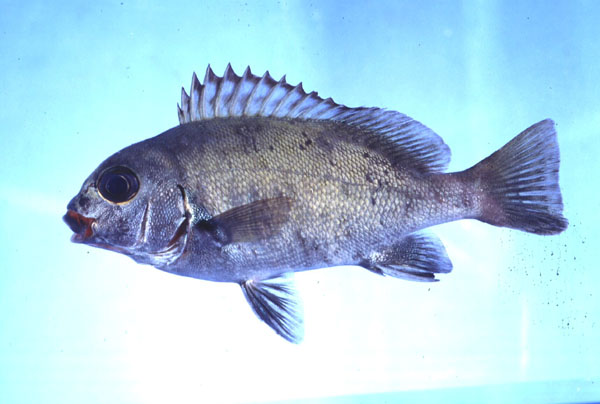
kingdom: Animalia
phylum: Chordata
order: Perciformes
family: Haemulidae
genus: Plectorhinchus
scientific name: Plectorhinchus schotaf
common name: Minstrel sweetlips
